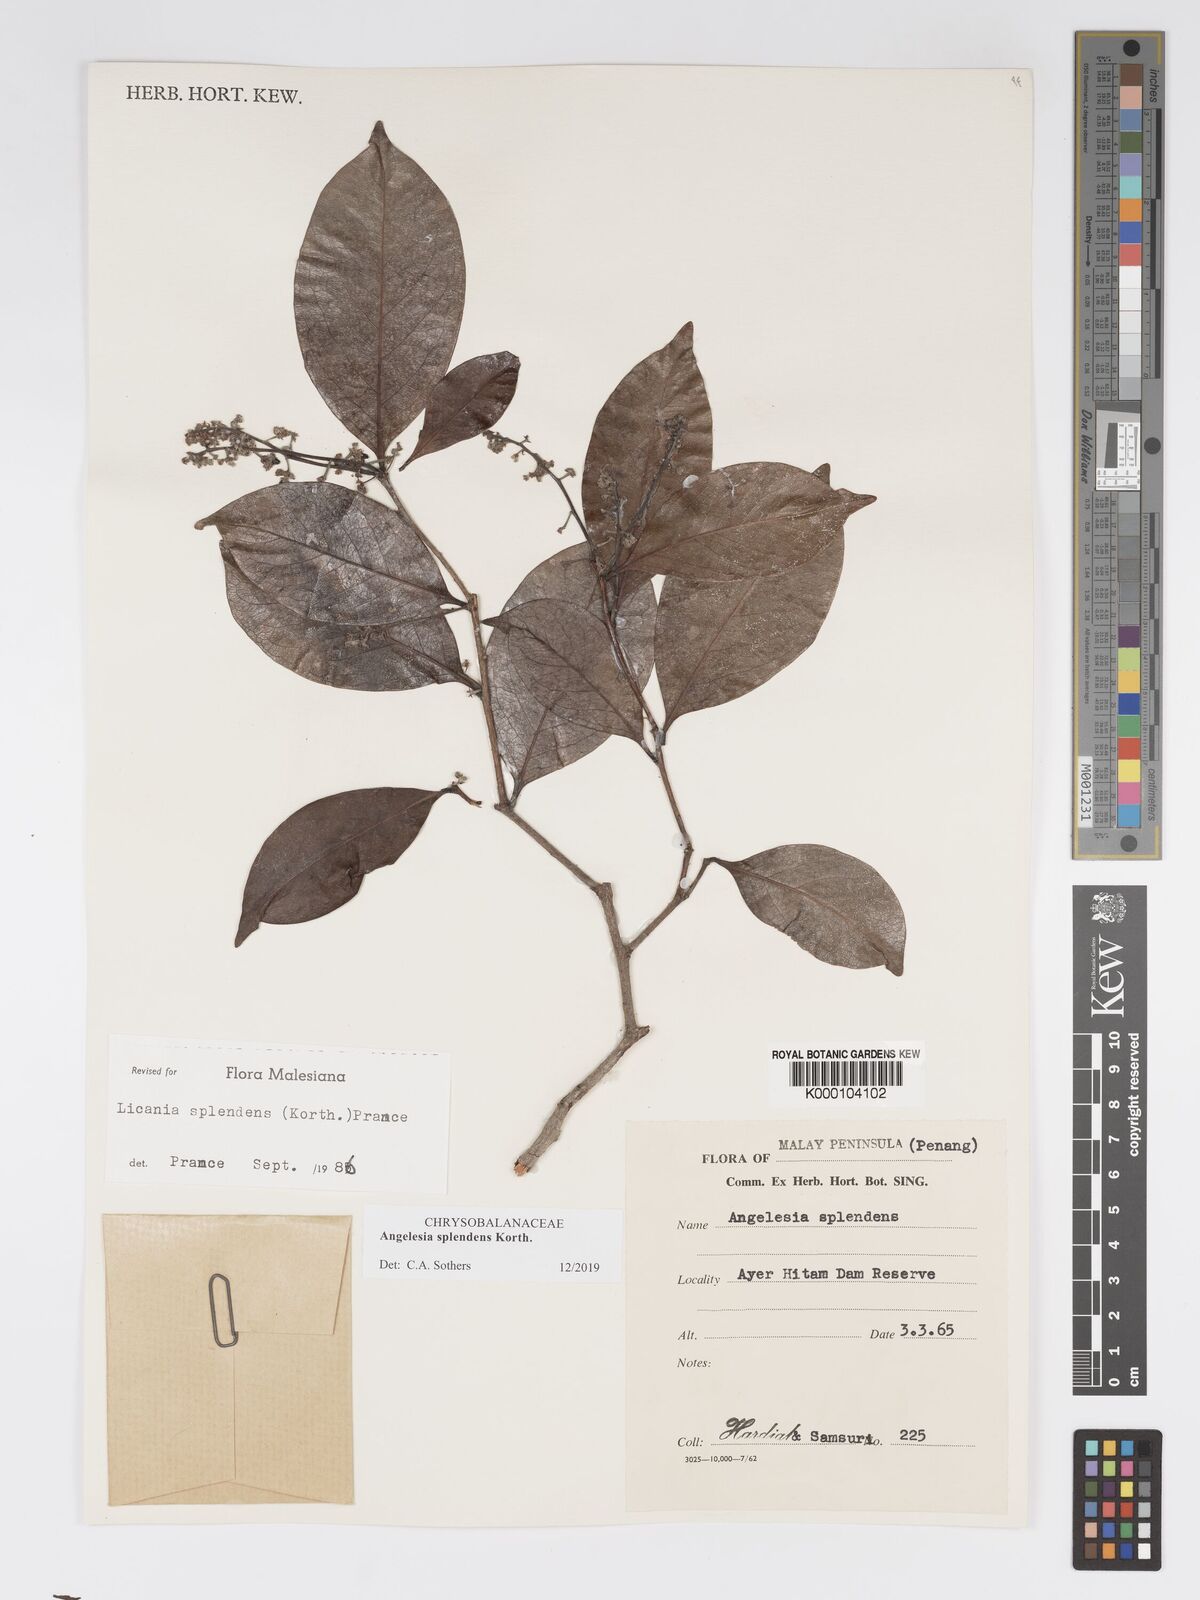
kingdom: Plantae
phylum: Tracheophyta
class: Magnoliopsida
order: Malpighiales
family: Chrysobalanaceae
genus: Angelesia
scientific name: Angelesia splendens
